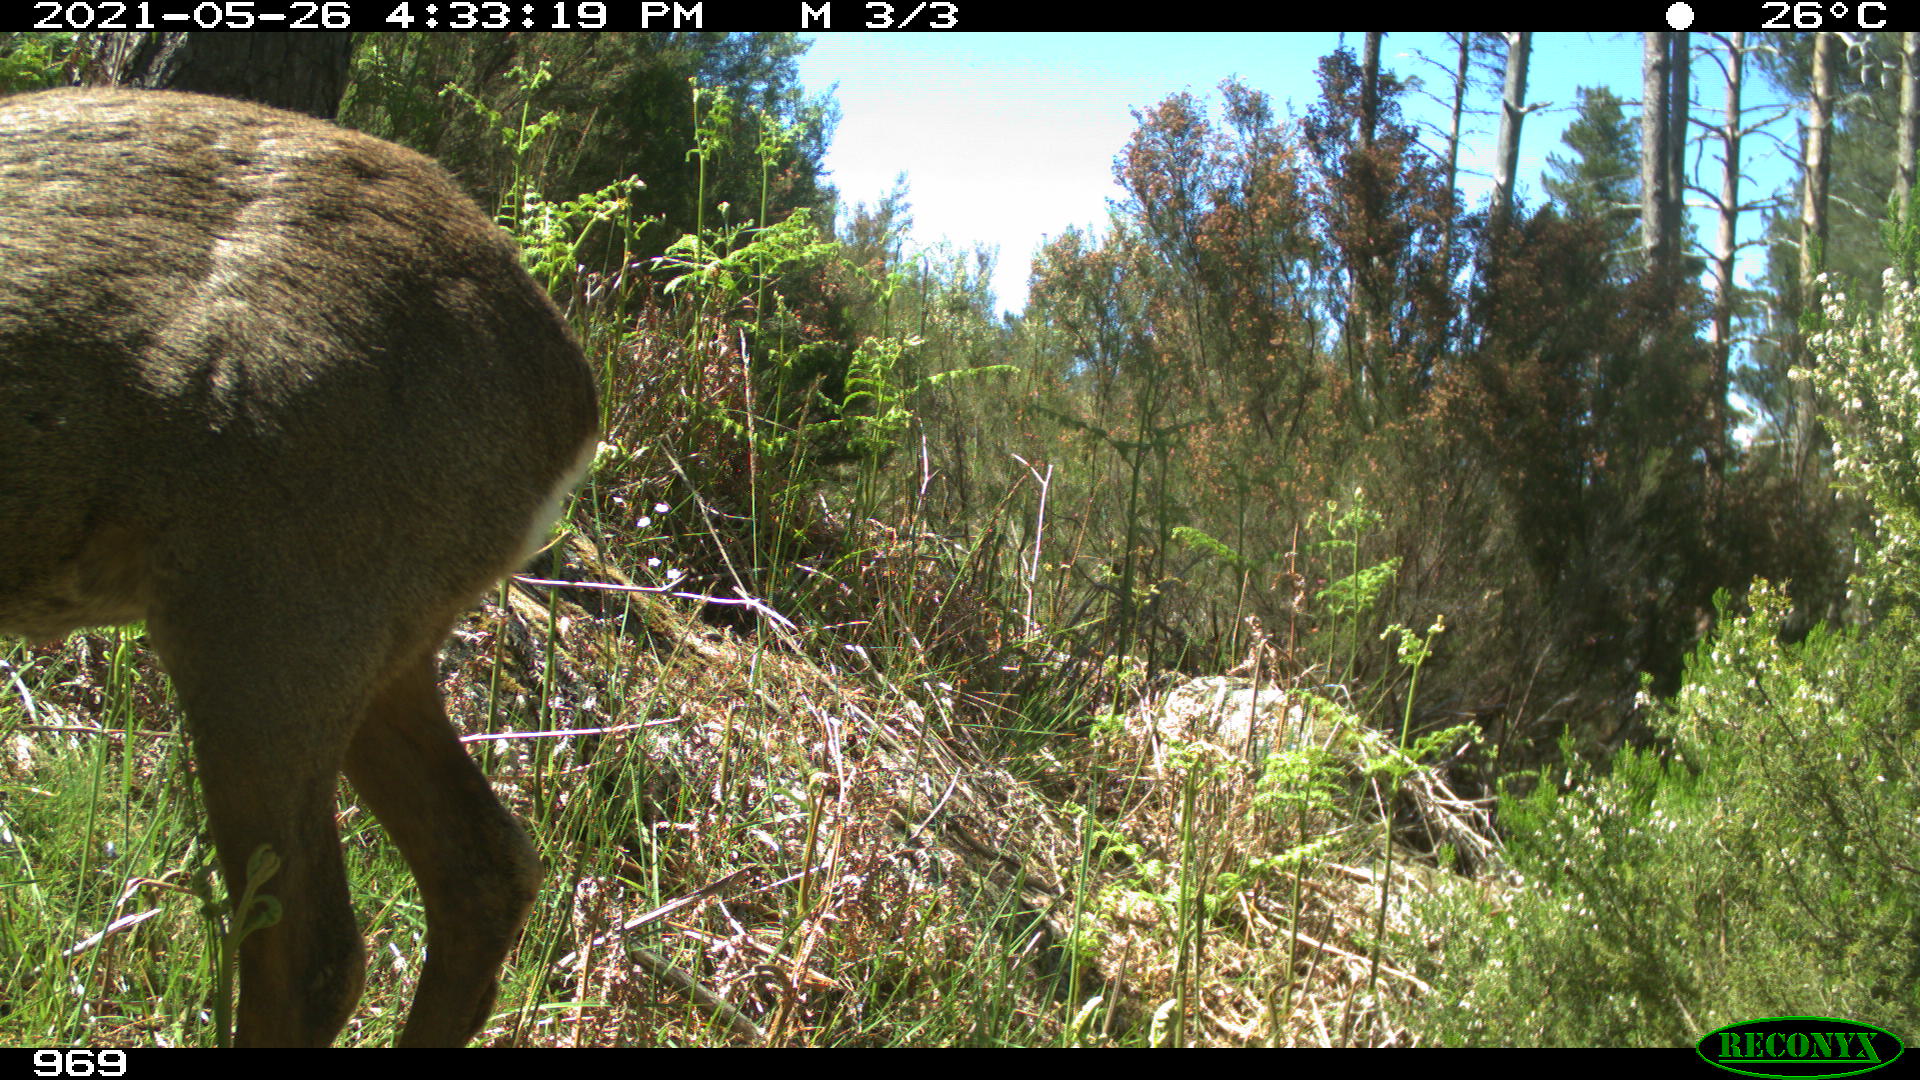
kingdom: Animalia
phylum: Chordata
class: Mammalia
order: Artiodactyla
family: Cervidae
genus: Capreolus
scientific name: Capreolus capreolus
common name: Western roe deer
